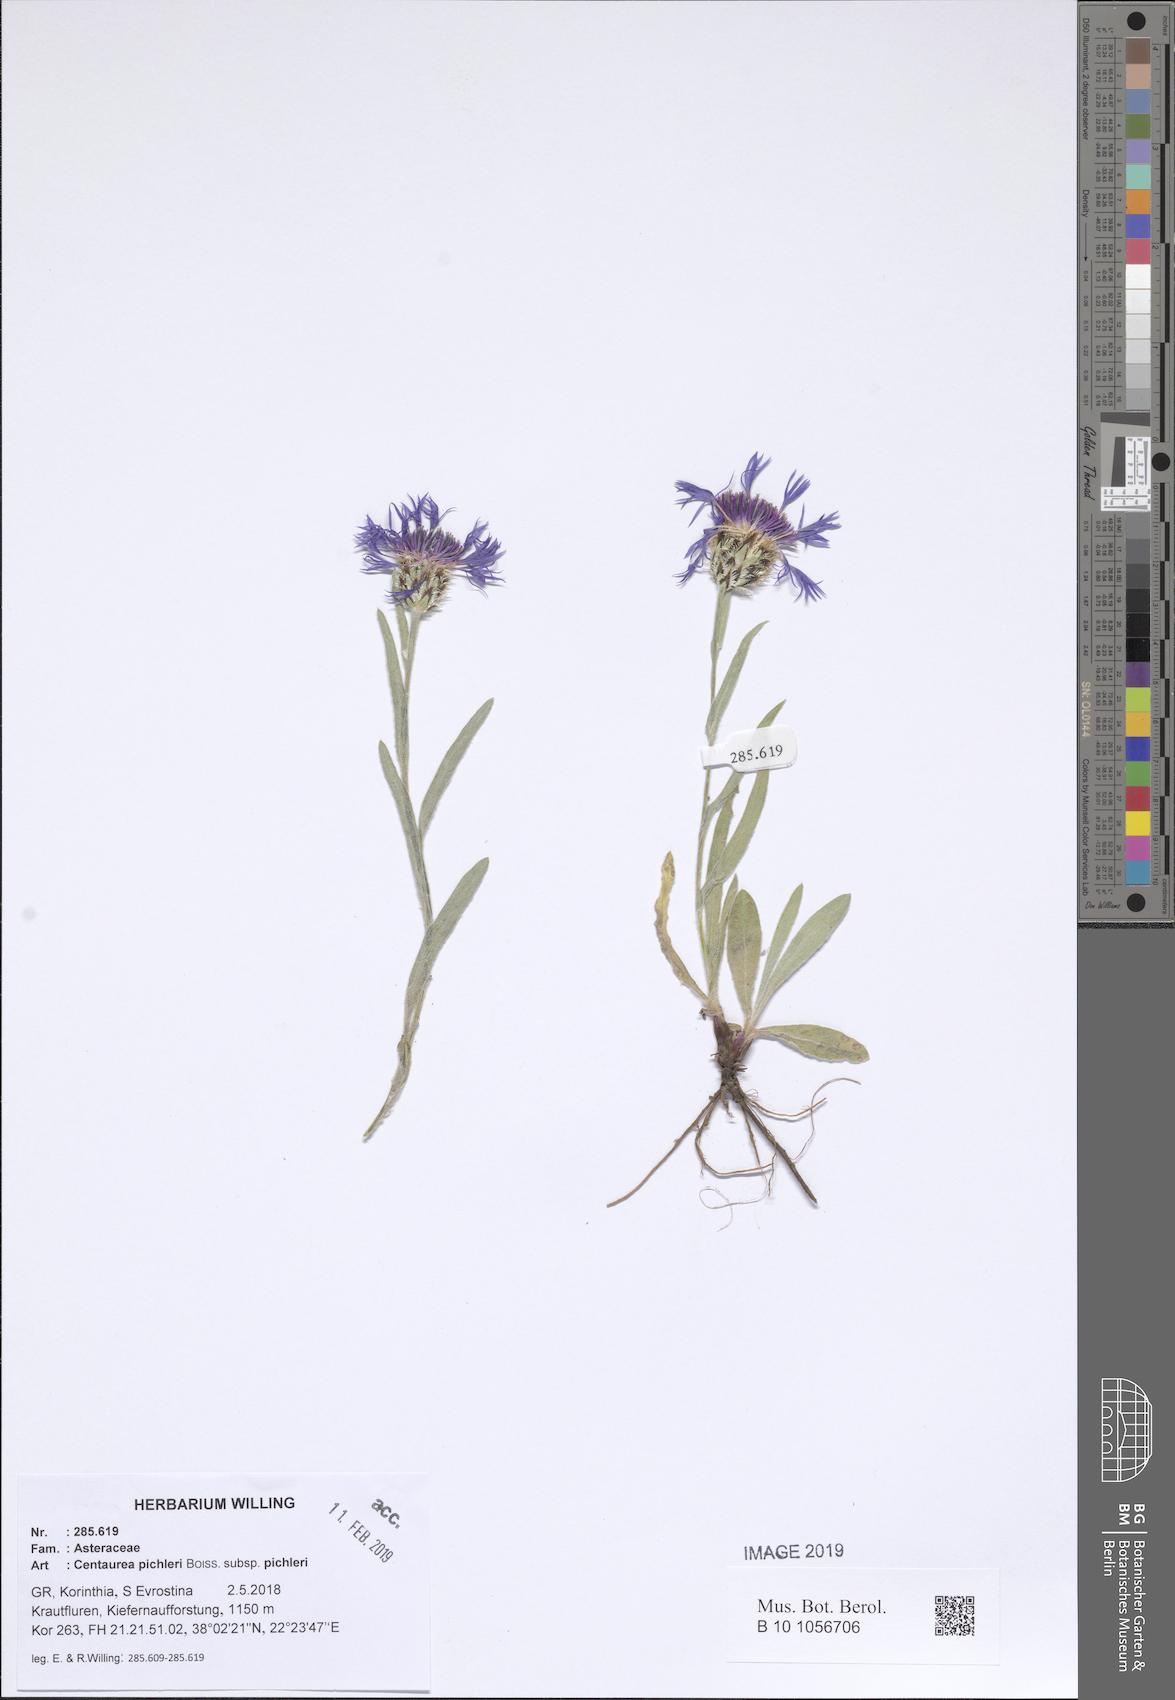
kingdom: Plantae
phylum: Tracheophyta
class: Magnoliopsida
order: Asterales
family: Asteraceae
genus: Centaurea
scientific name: Centaurea pichleri
